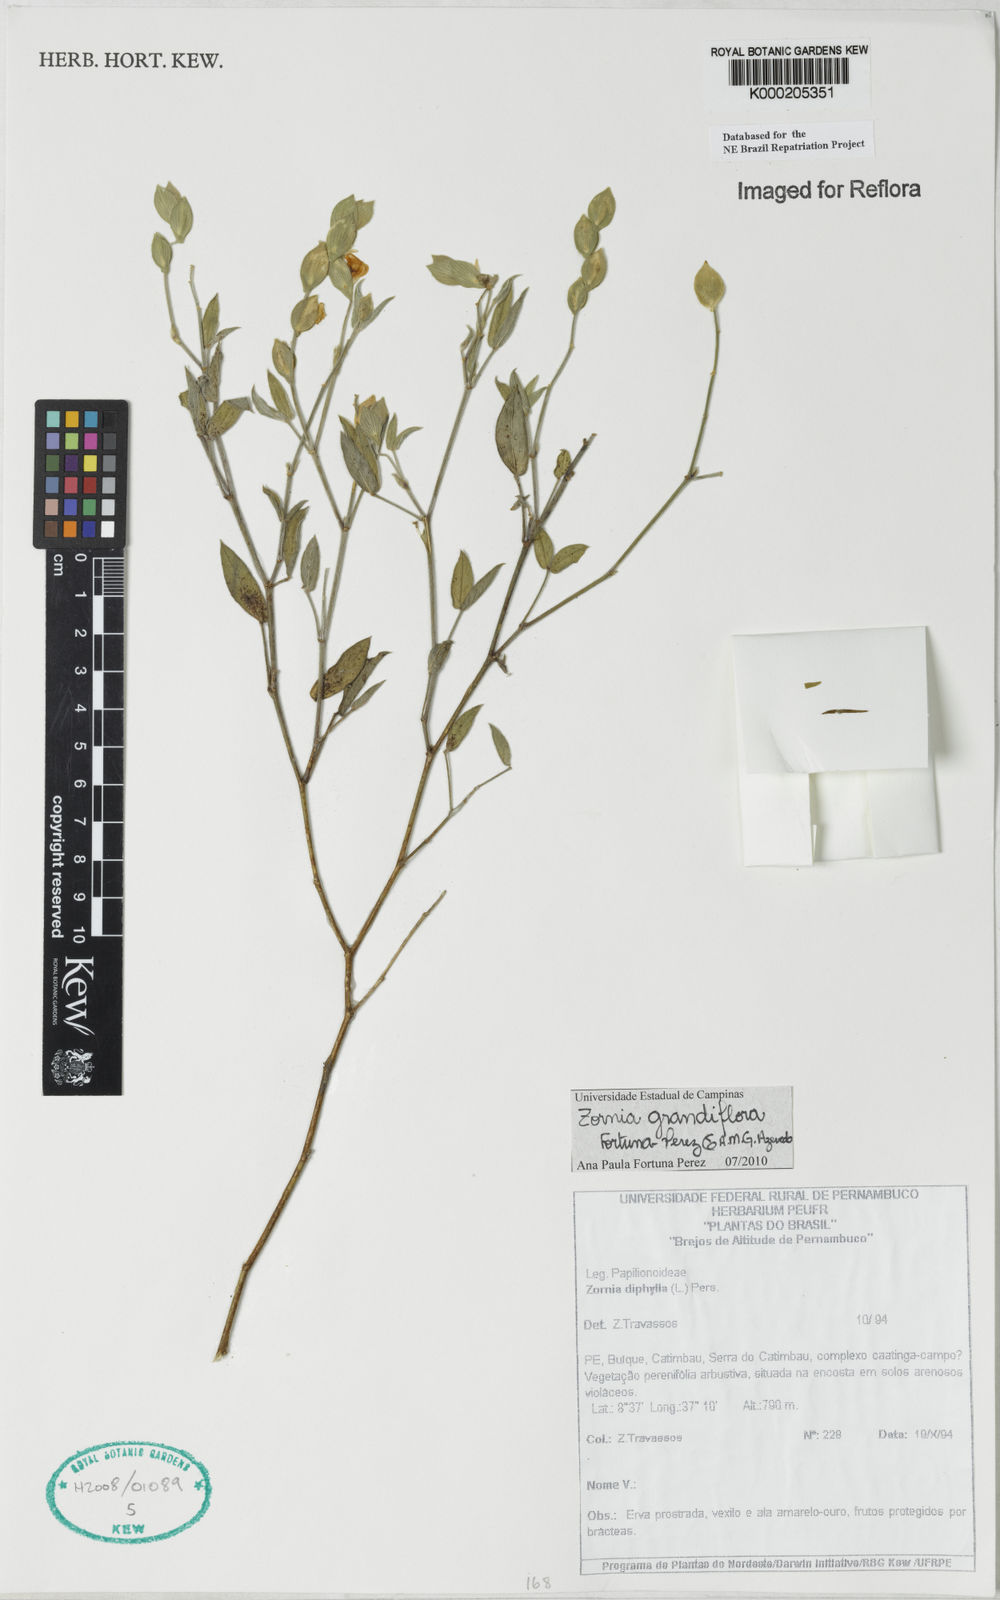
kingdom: Plantae
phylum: Tracheophyta
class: Magnoliopsida
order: Fabales
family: Fabaceae
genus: Zornia
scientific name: Zornia diphylla
